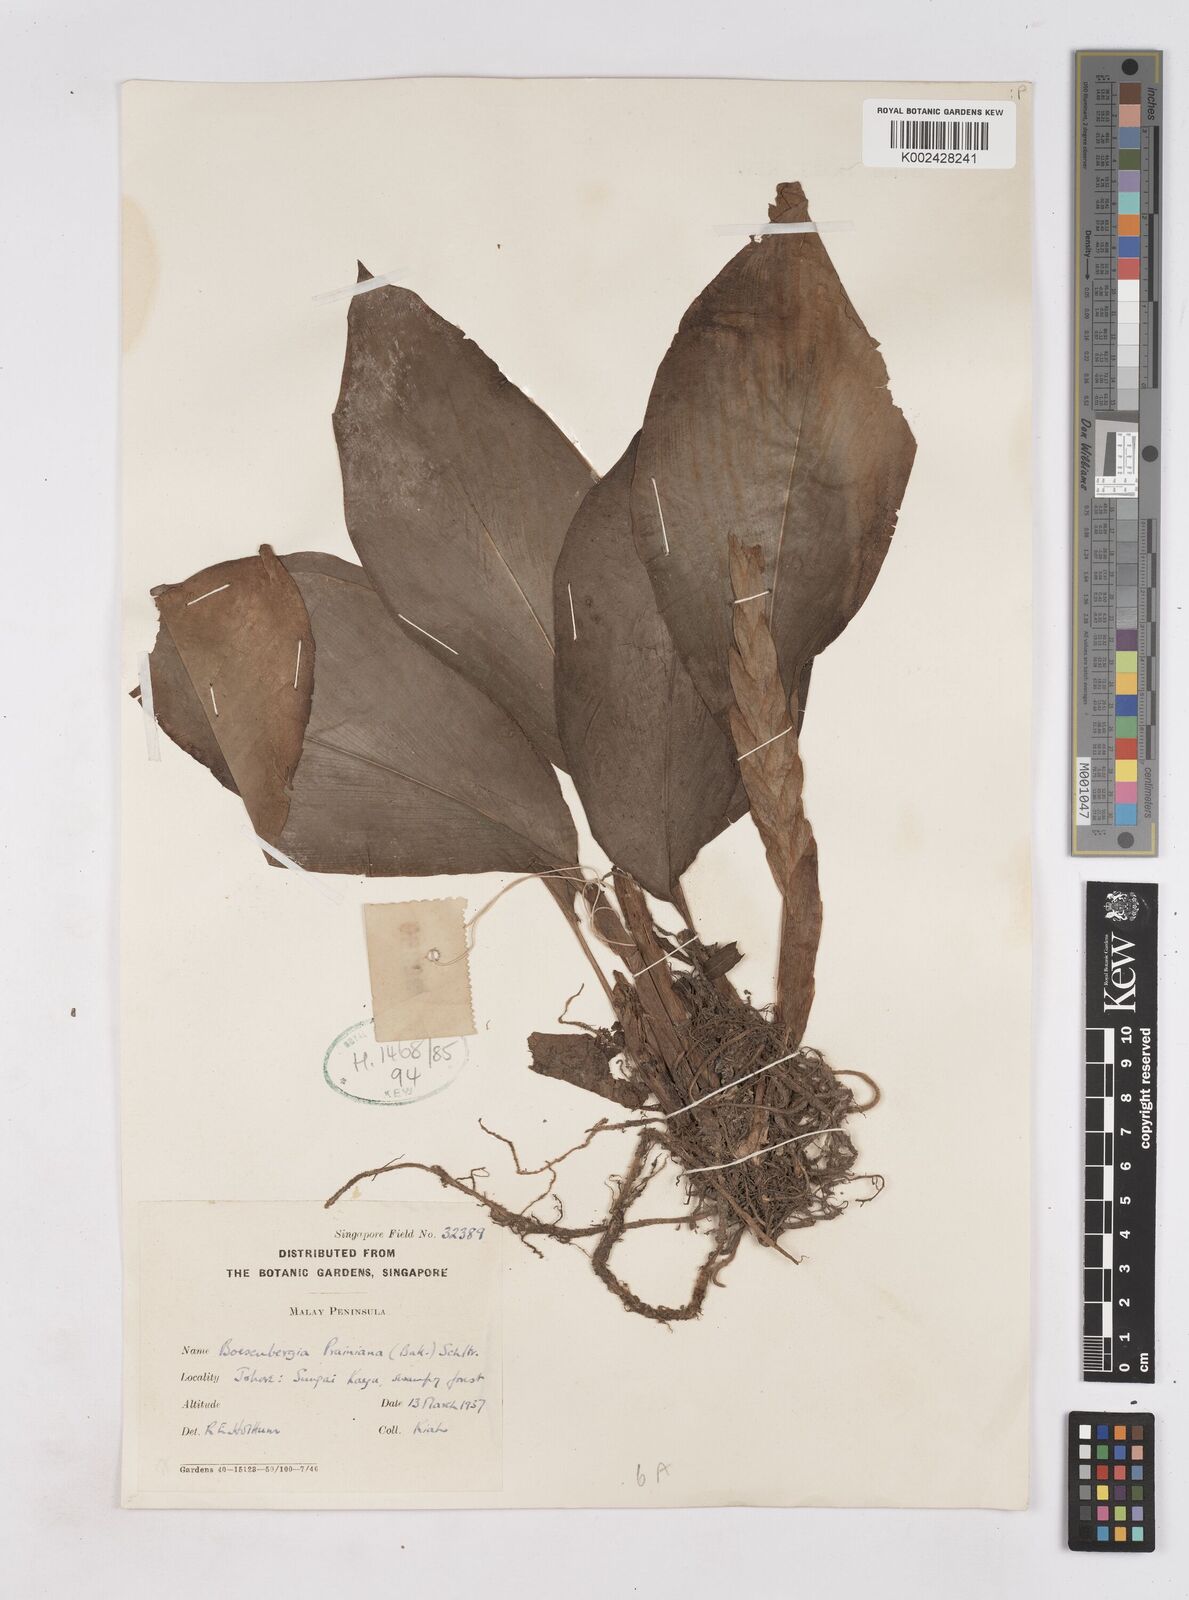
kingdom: Plantae
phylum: Tracheophyta
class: Liliopsida
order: Zingiberales
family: Zingiberaceae
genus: Boesenbergia
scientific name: Boesenbergia prainiana
